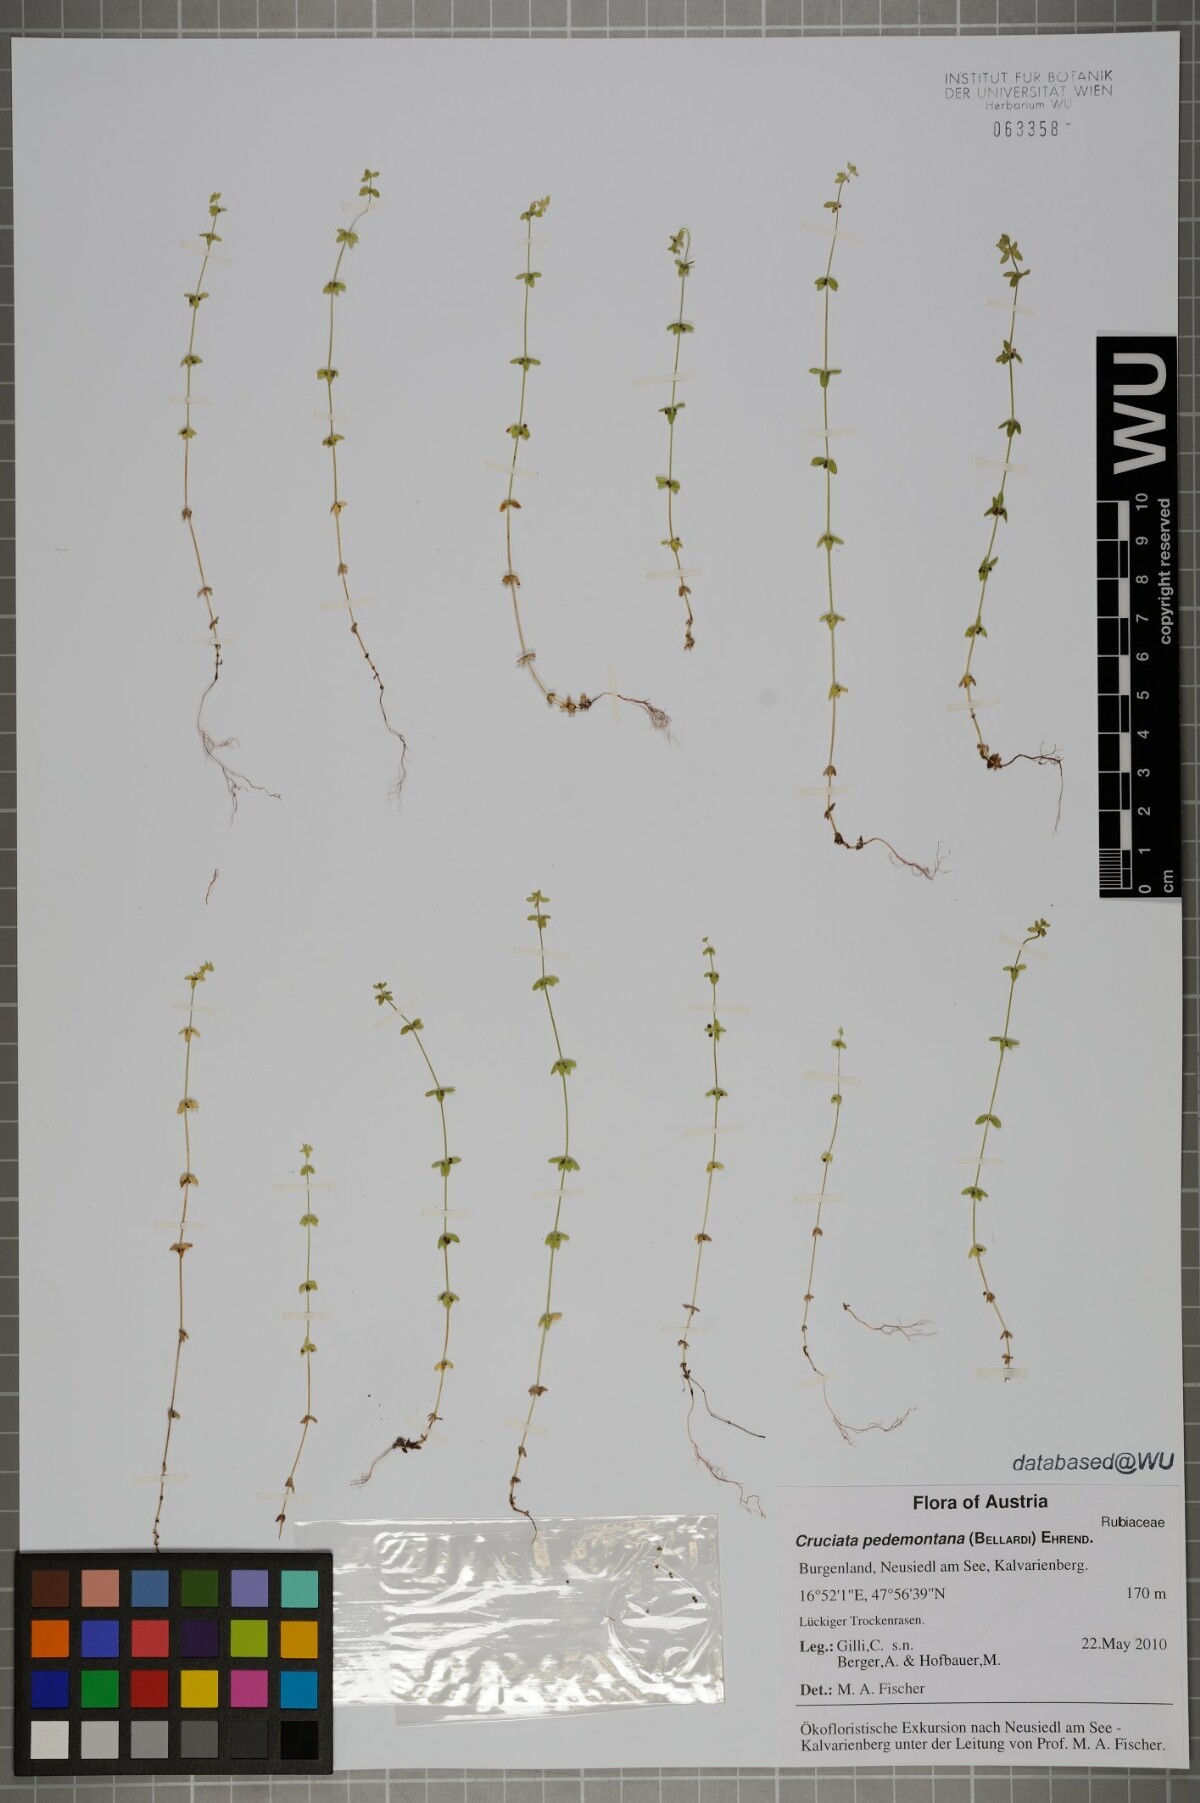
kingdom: Plantae
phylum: Tracheophyta
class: Magnoliopsida
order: Gentianales
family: Rubiaceae
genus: Cruciata
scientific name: Cruciata pedemontana
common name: Piedmont bedstraw
